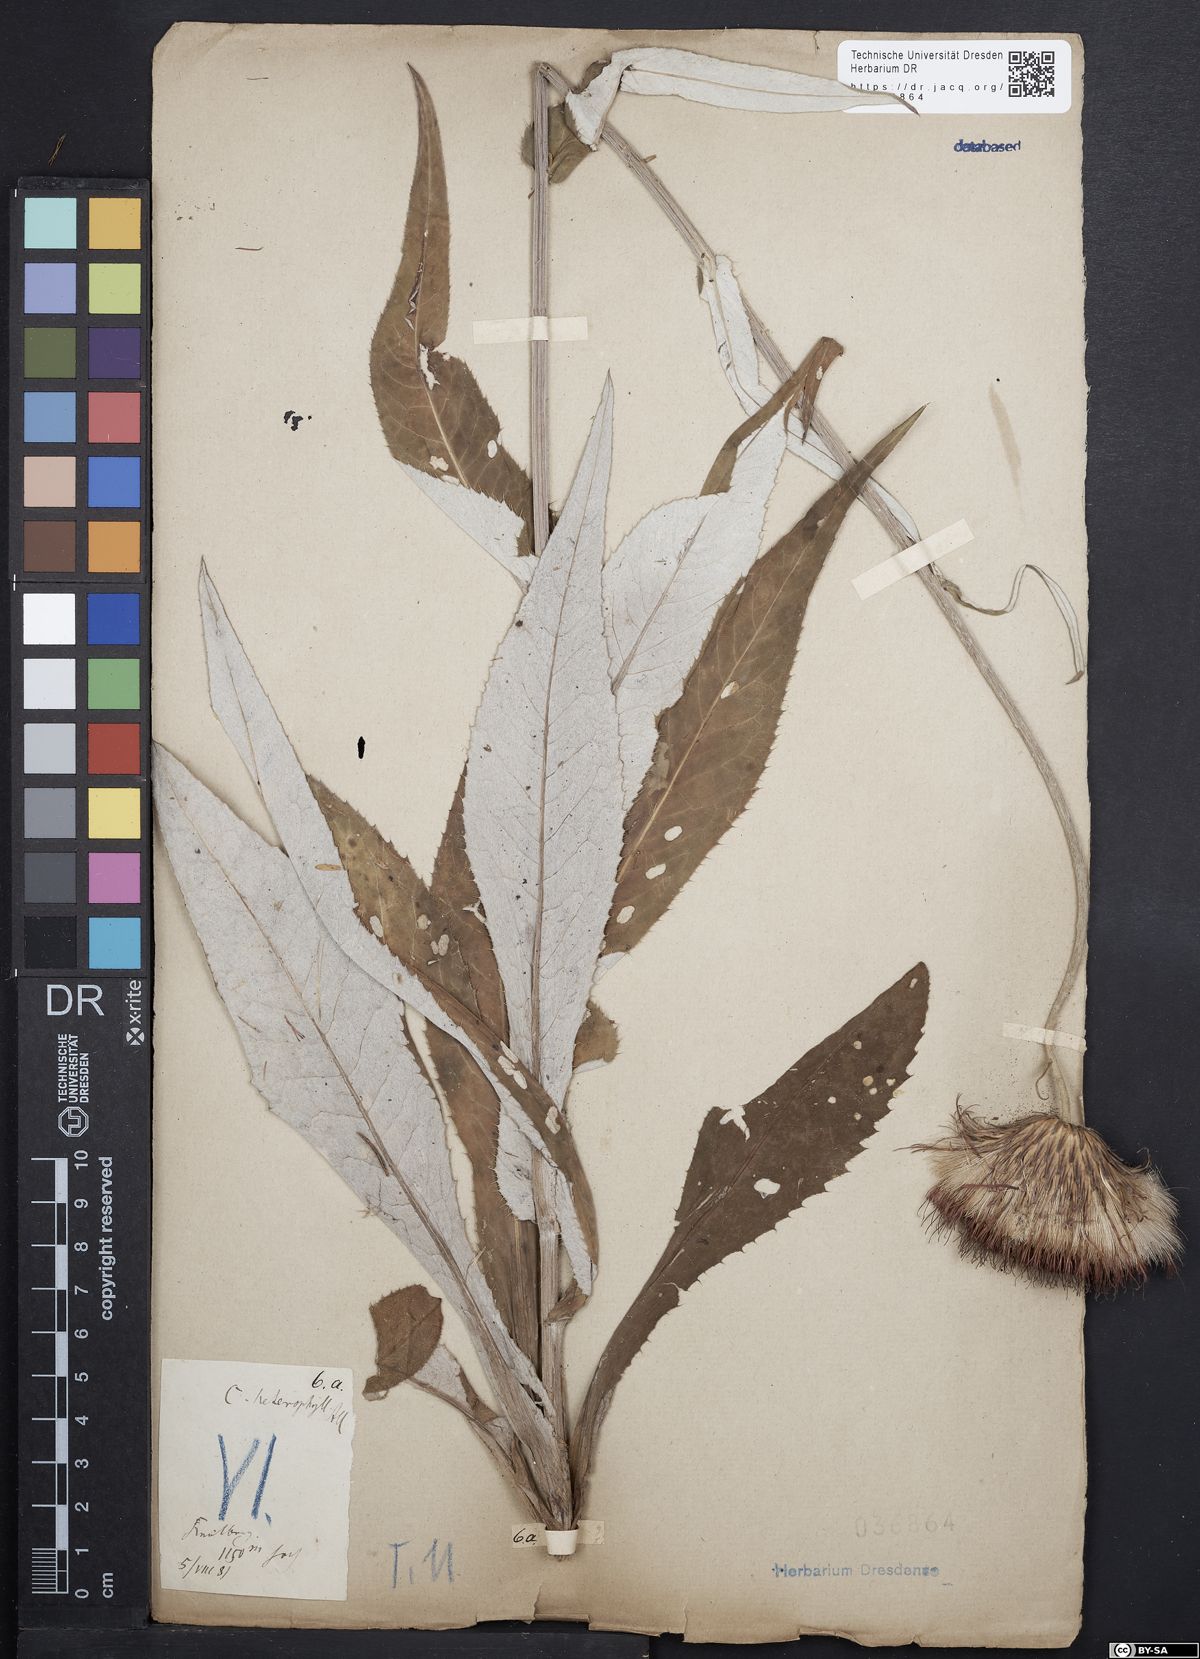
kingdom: Plantae
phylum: Tracheophyta
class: Magnoliopsida
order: Asterales
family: Asteraceae
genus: Cirsium
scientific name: Cirsium helenioides
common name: Melancholy thistle
